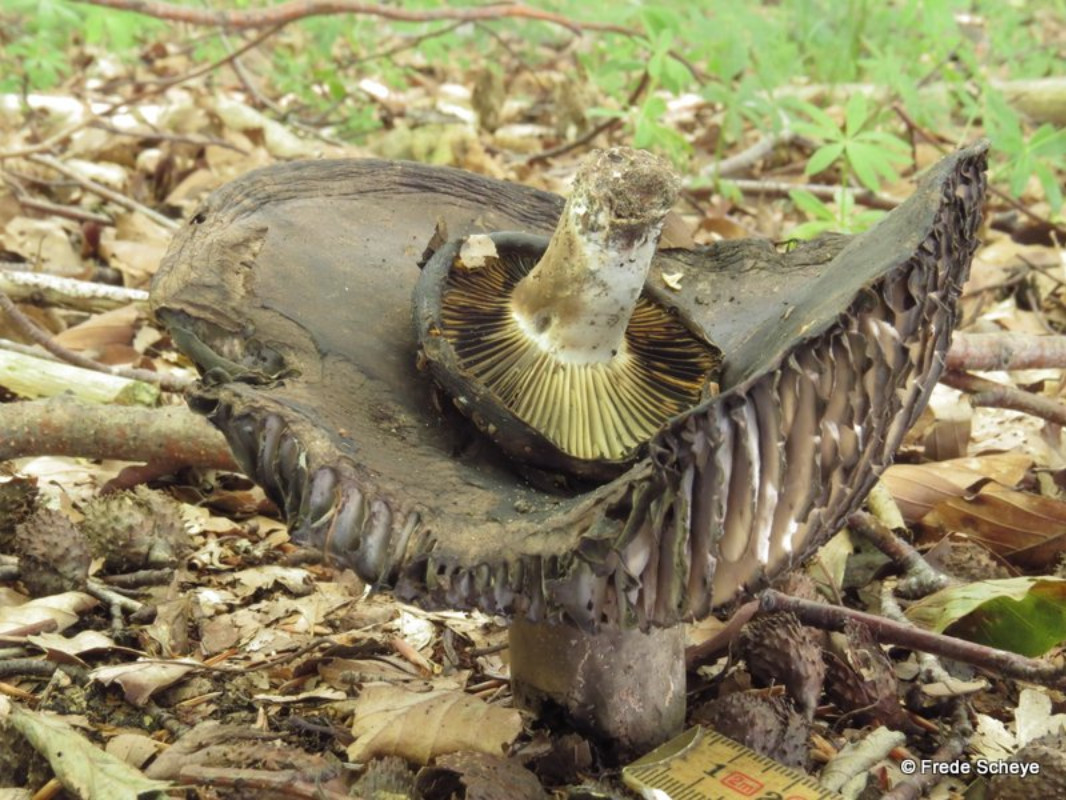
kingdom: Fungi
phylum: Basidiomycota
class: Agaricomycetes
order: Russulales
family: Russulaceae
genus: Russula
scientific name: Russula adusta
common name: sværtende skørhat
